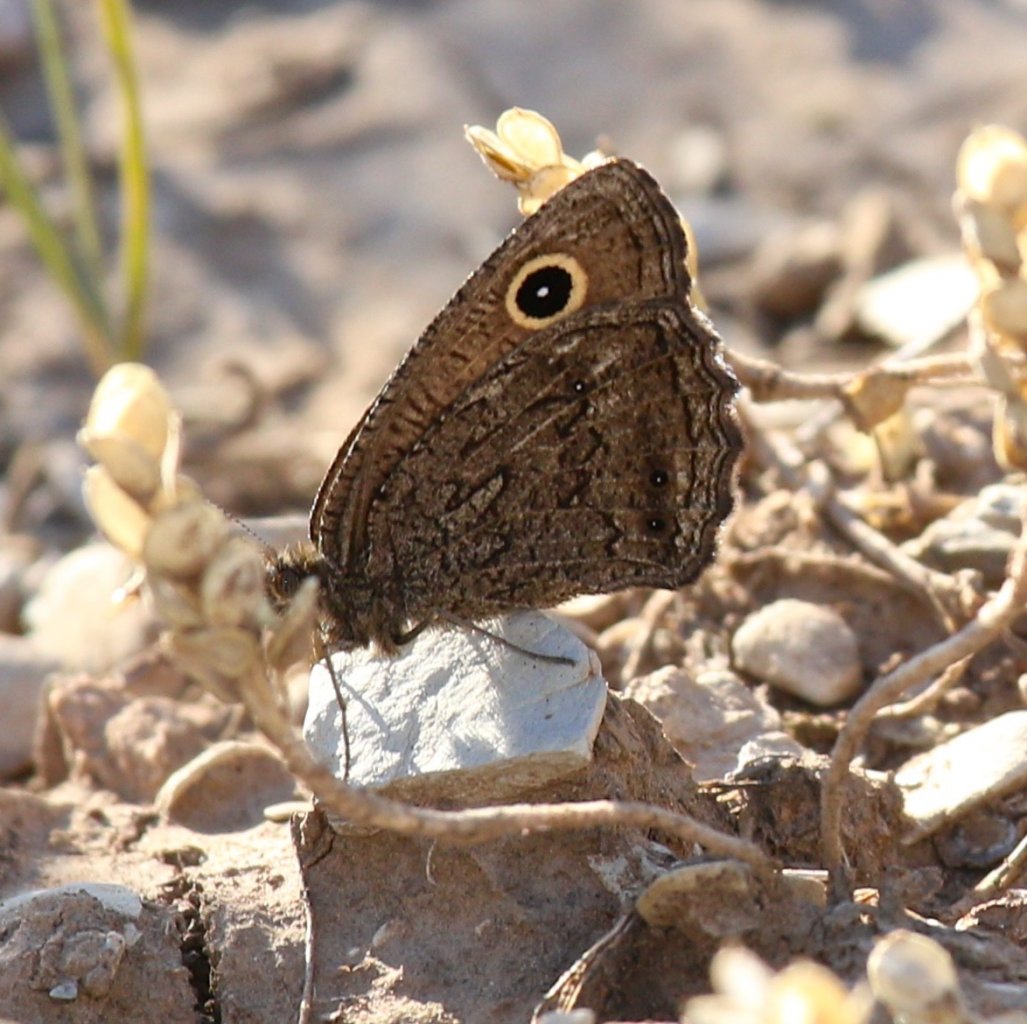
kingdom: Animalia
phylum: Arthropoda
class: Insecta
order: Lepidoptera
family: Nymphalidae
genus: Cercyonis
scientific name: Cercyonis oetus
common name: Small Wood-Nymph
